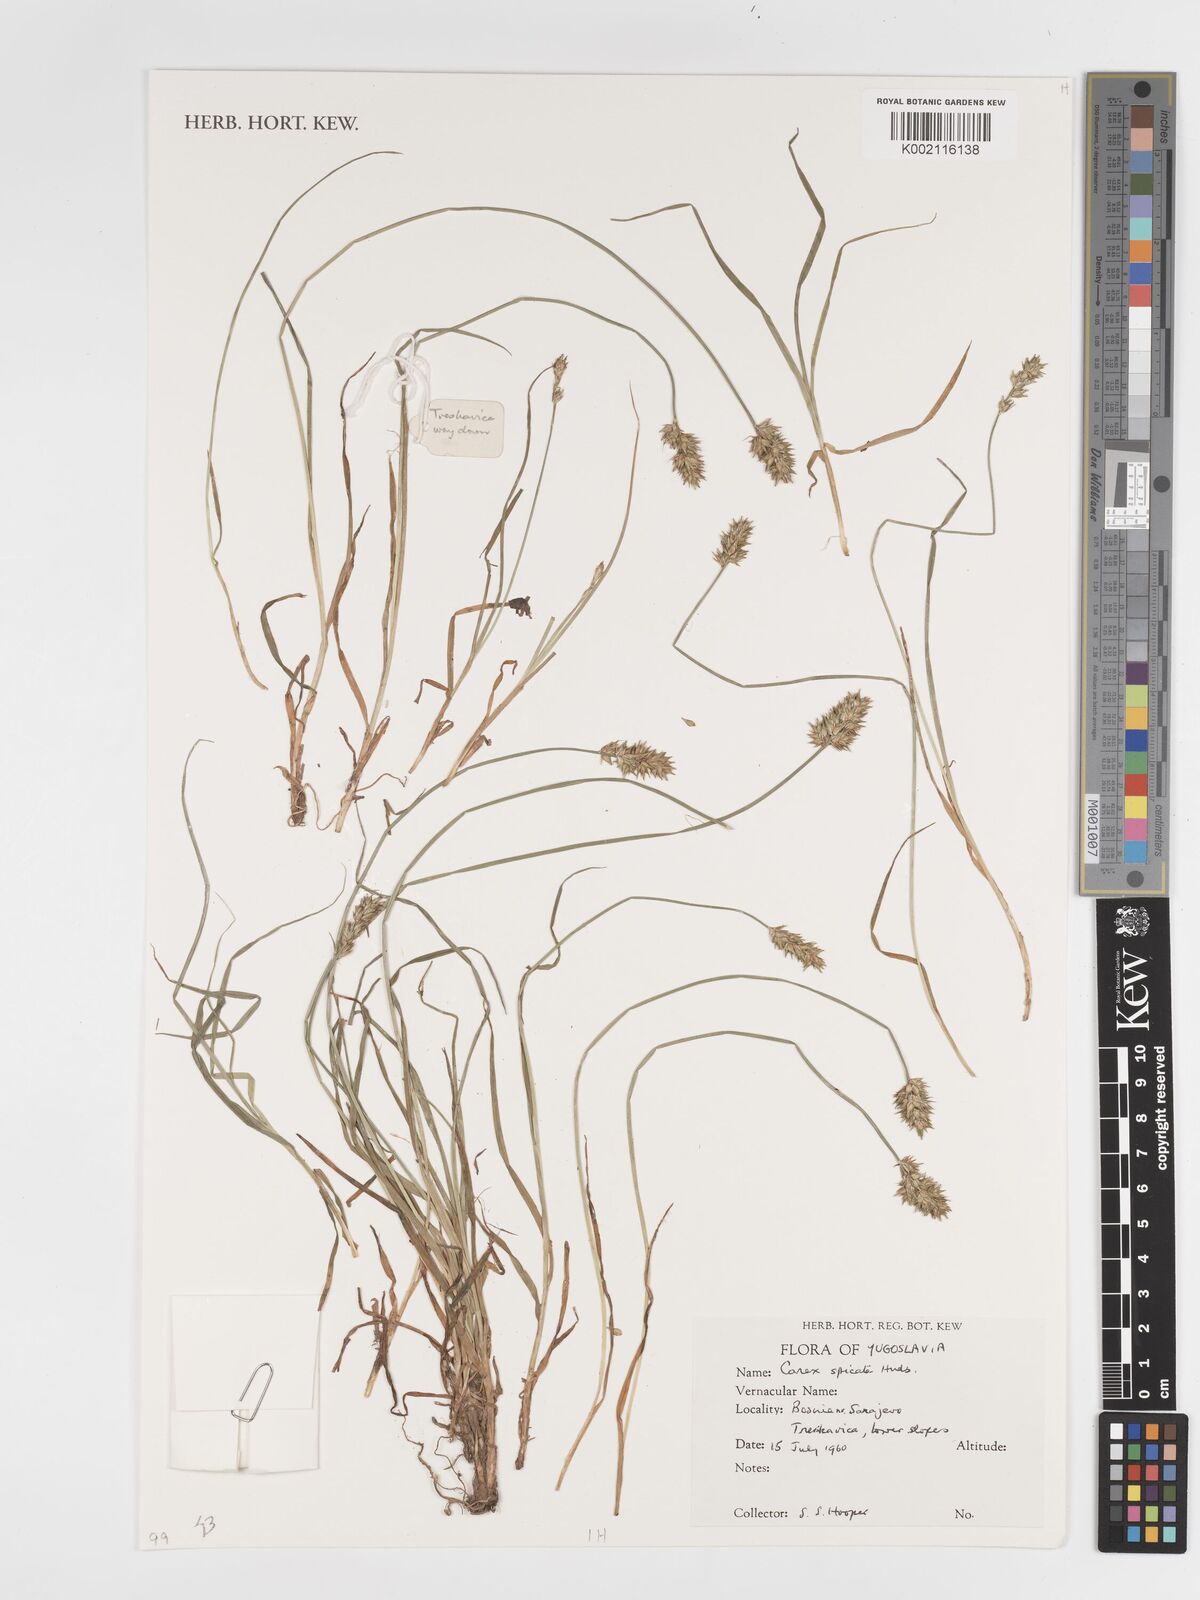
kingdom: Plantae
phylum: Tracheophyta
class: Liliopsida
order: Poales
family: Cyperaceae
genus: Carex
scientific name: Carex spicata
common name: Spiked sedge
